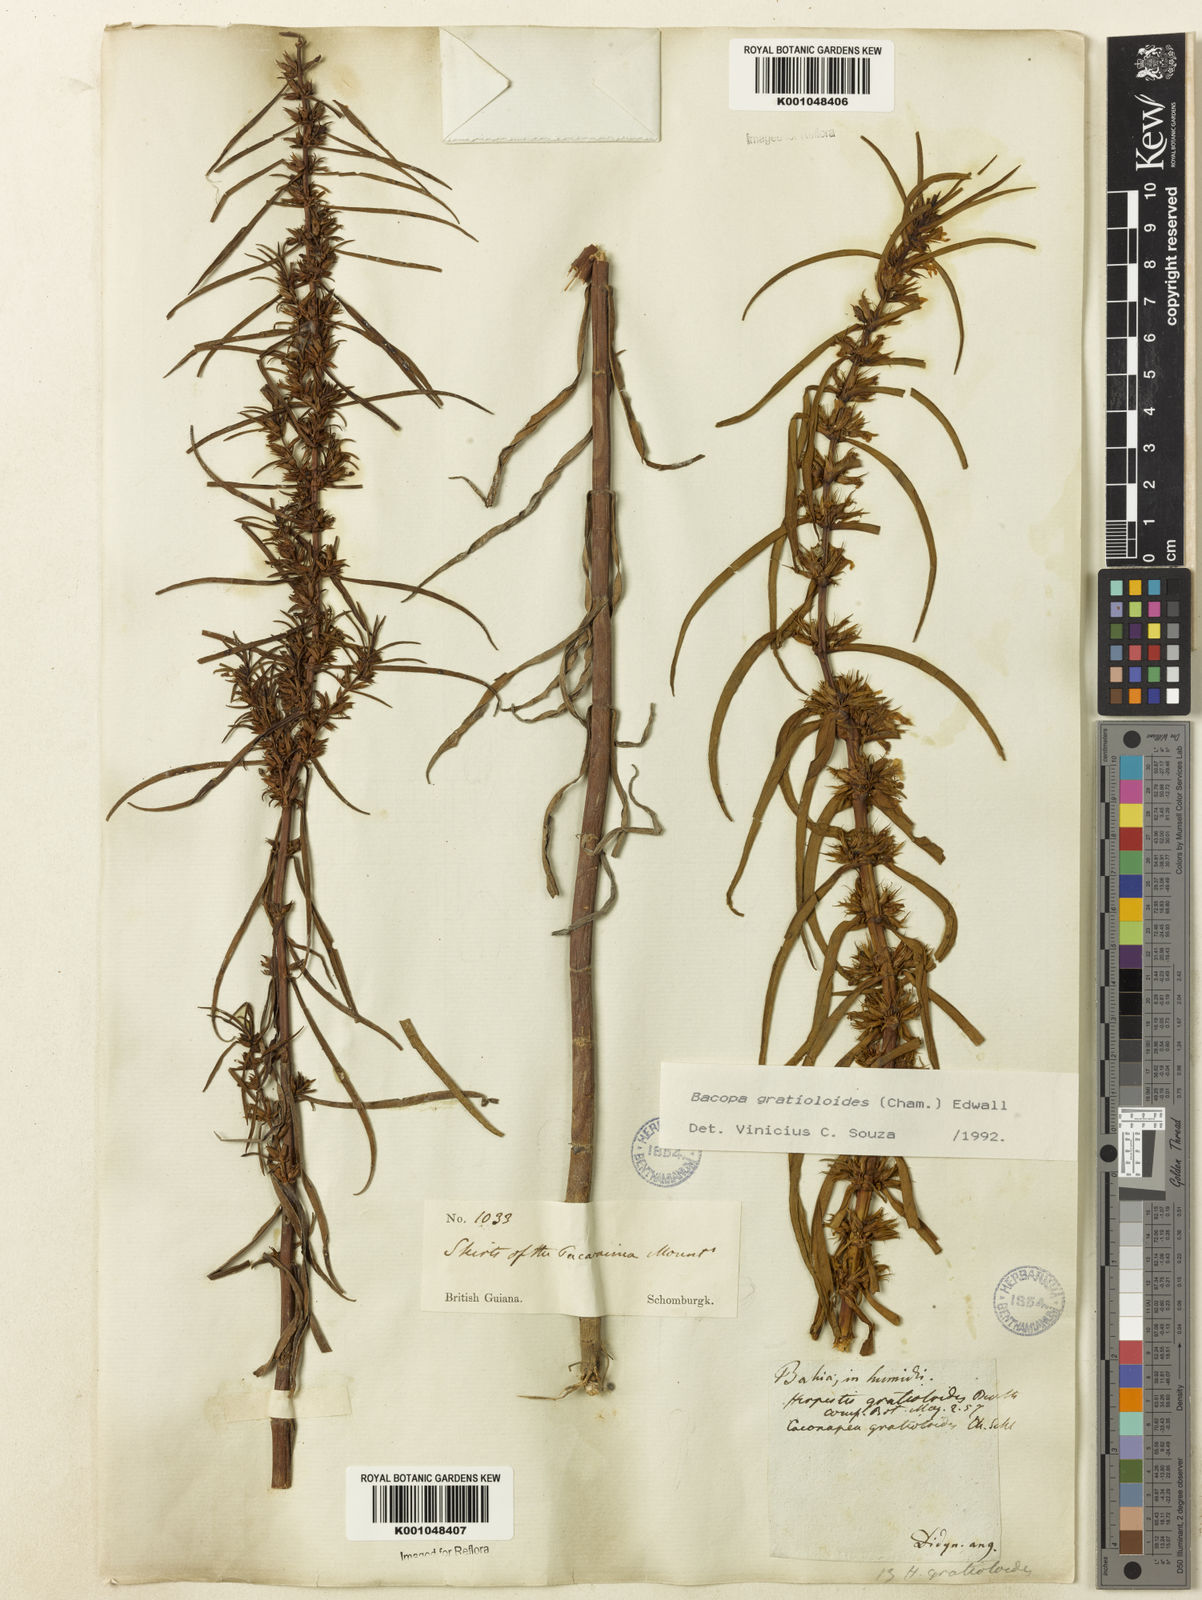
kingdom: Plantae
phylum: Tracheophyta
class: Magnoliopsida
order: Lamiales
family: Plantaginaceae
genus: Bacopa
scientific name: Bacopa
